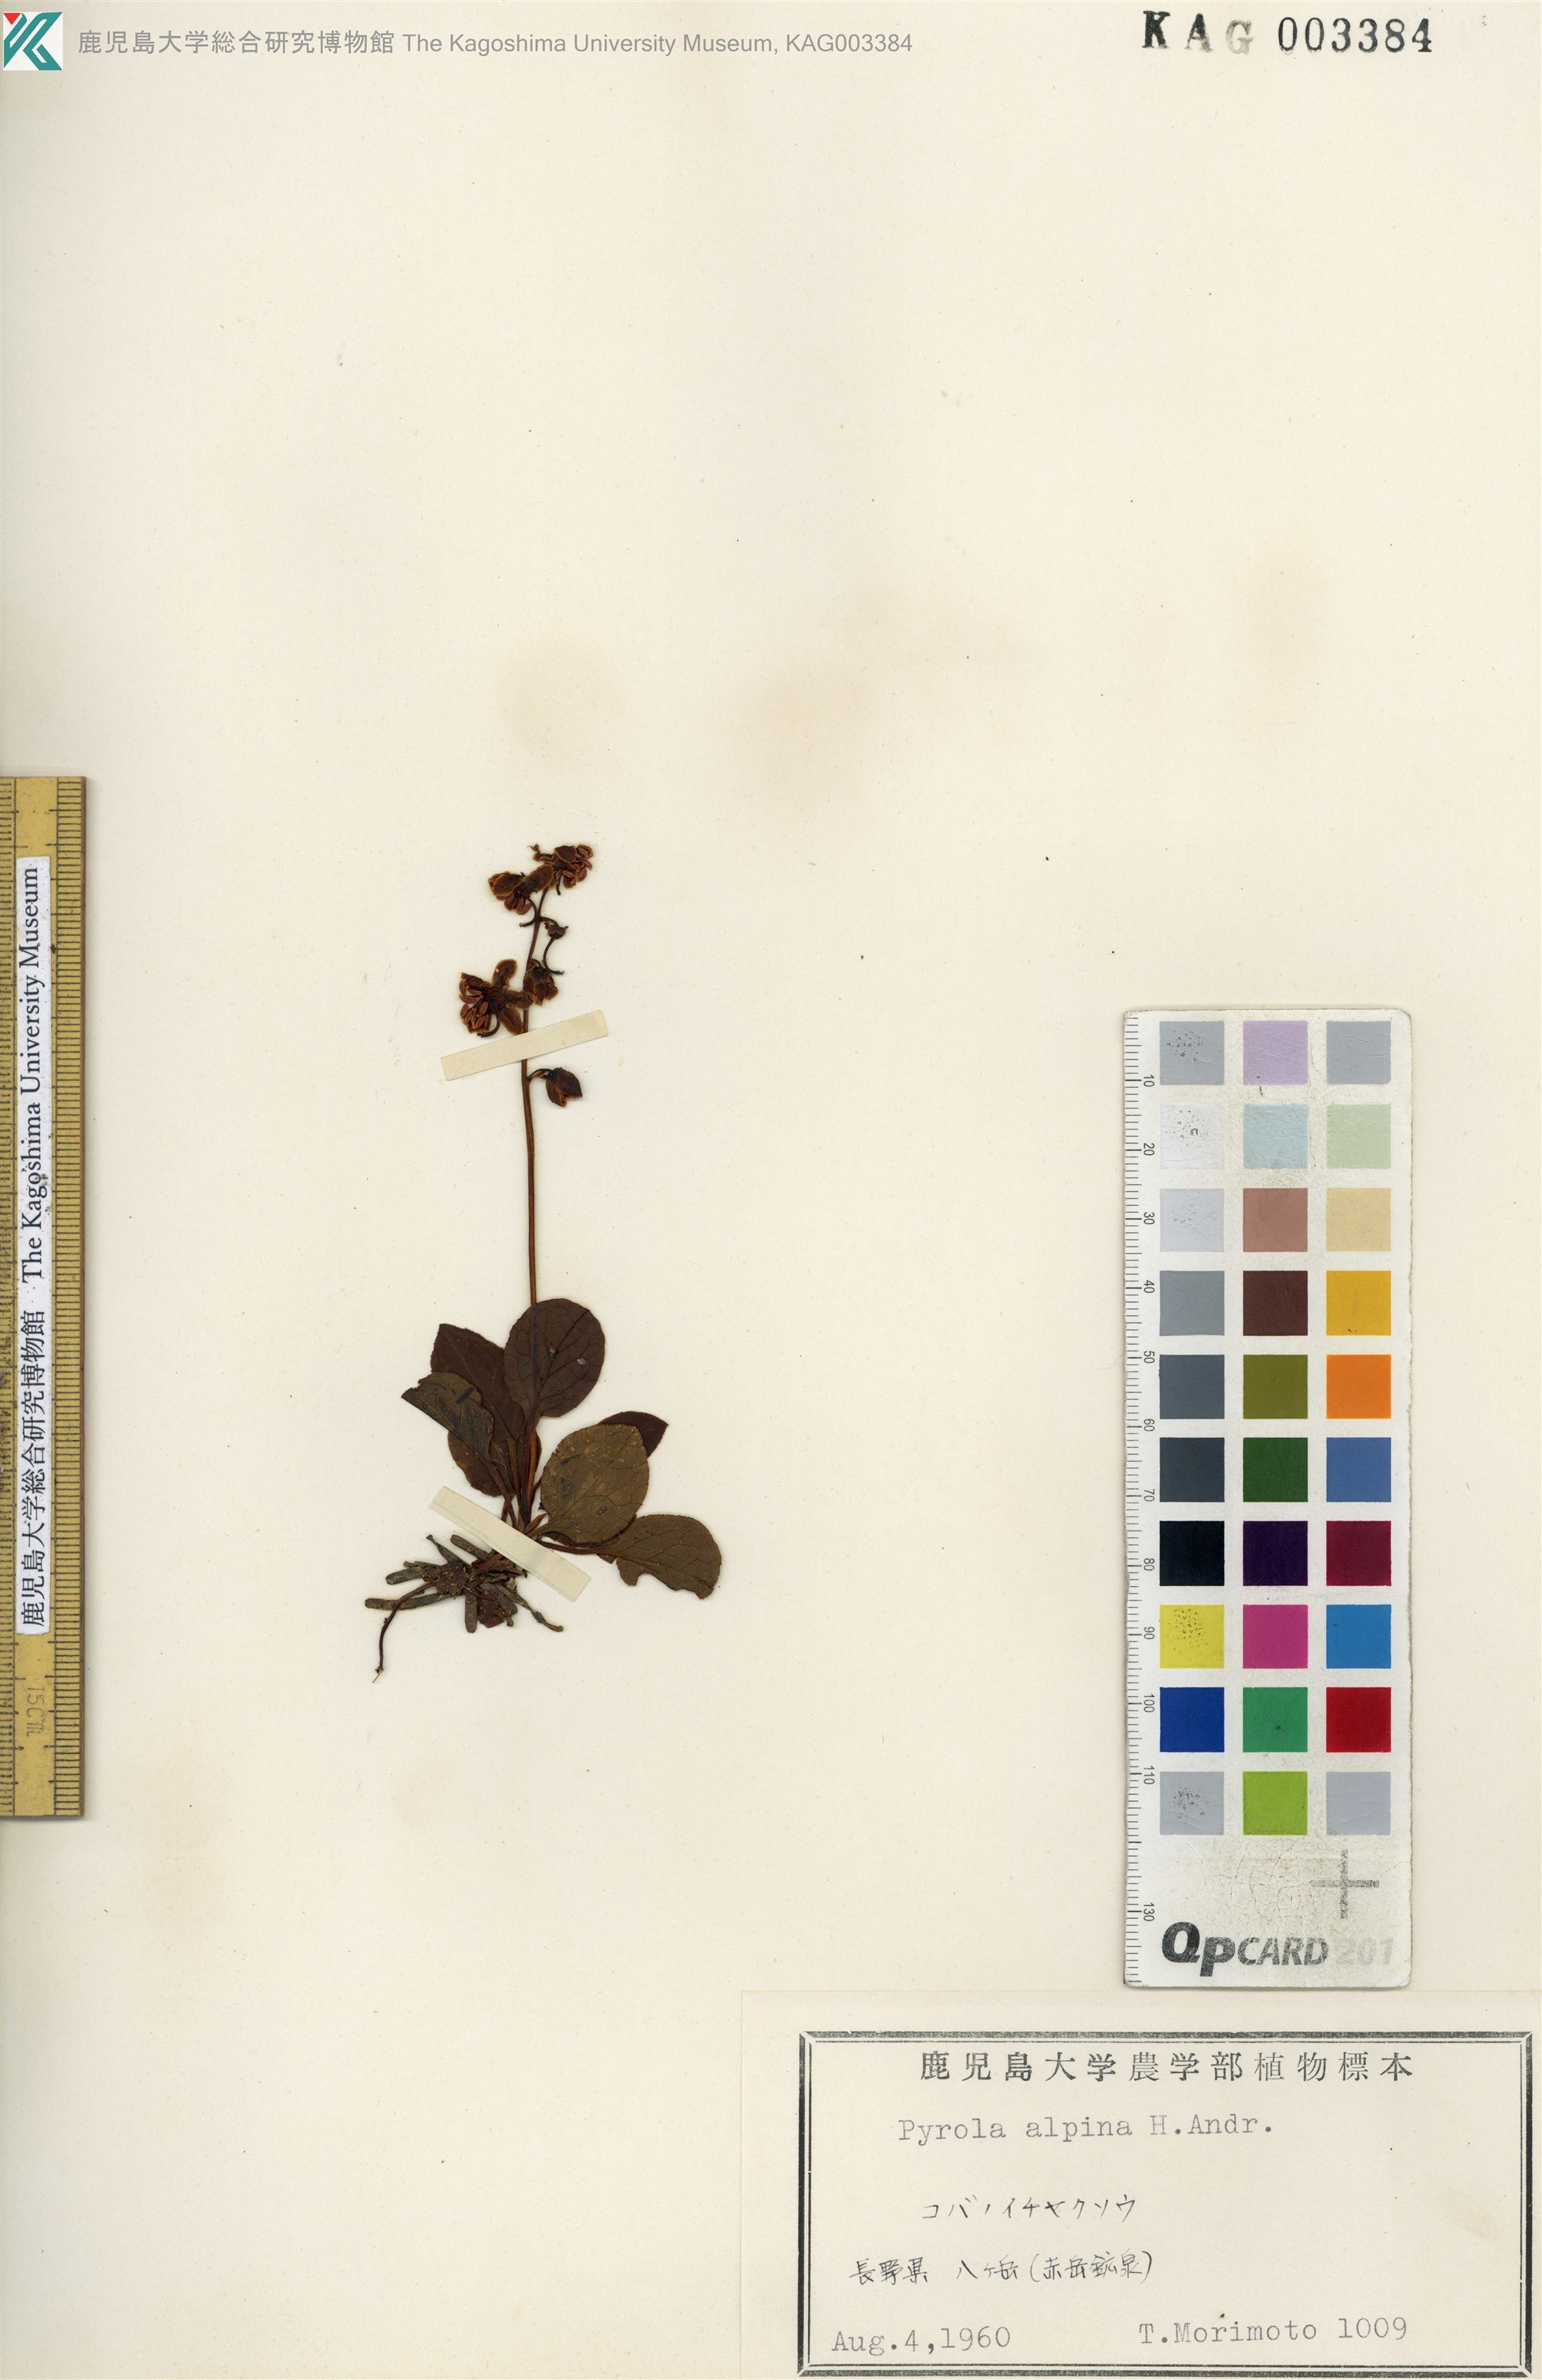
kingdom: Plantae
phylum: Tracheophyta
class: Magnoliopsida
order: Ericales
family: Ericaceae
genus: Pyrola
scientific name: Pyrola alpina
